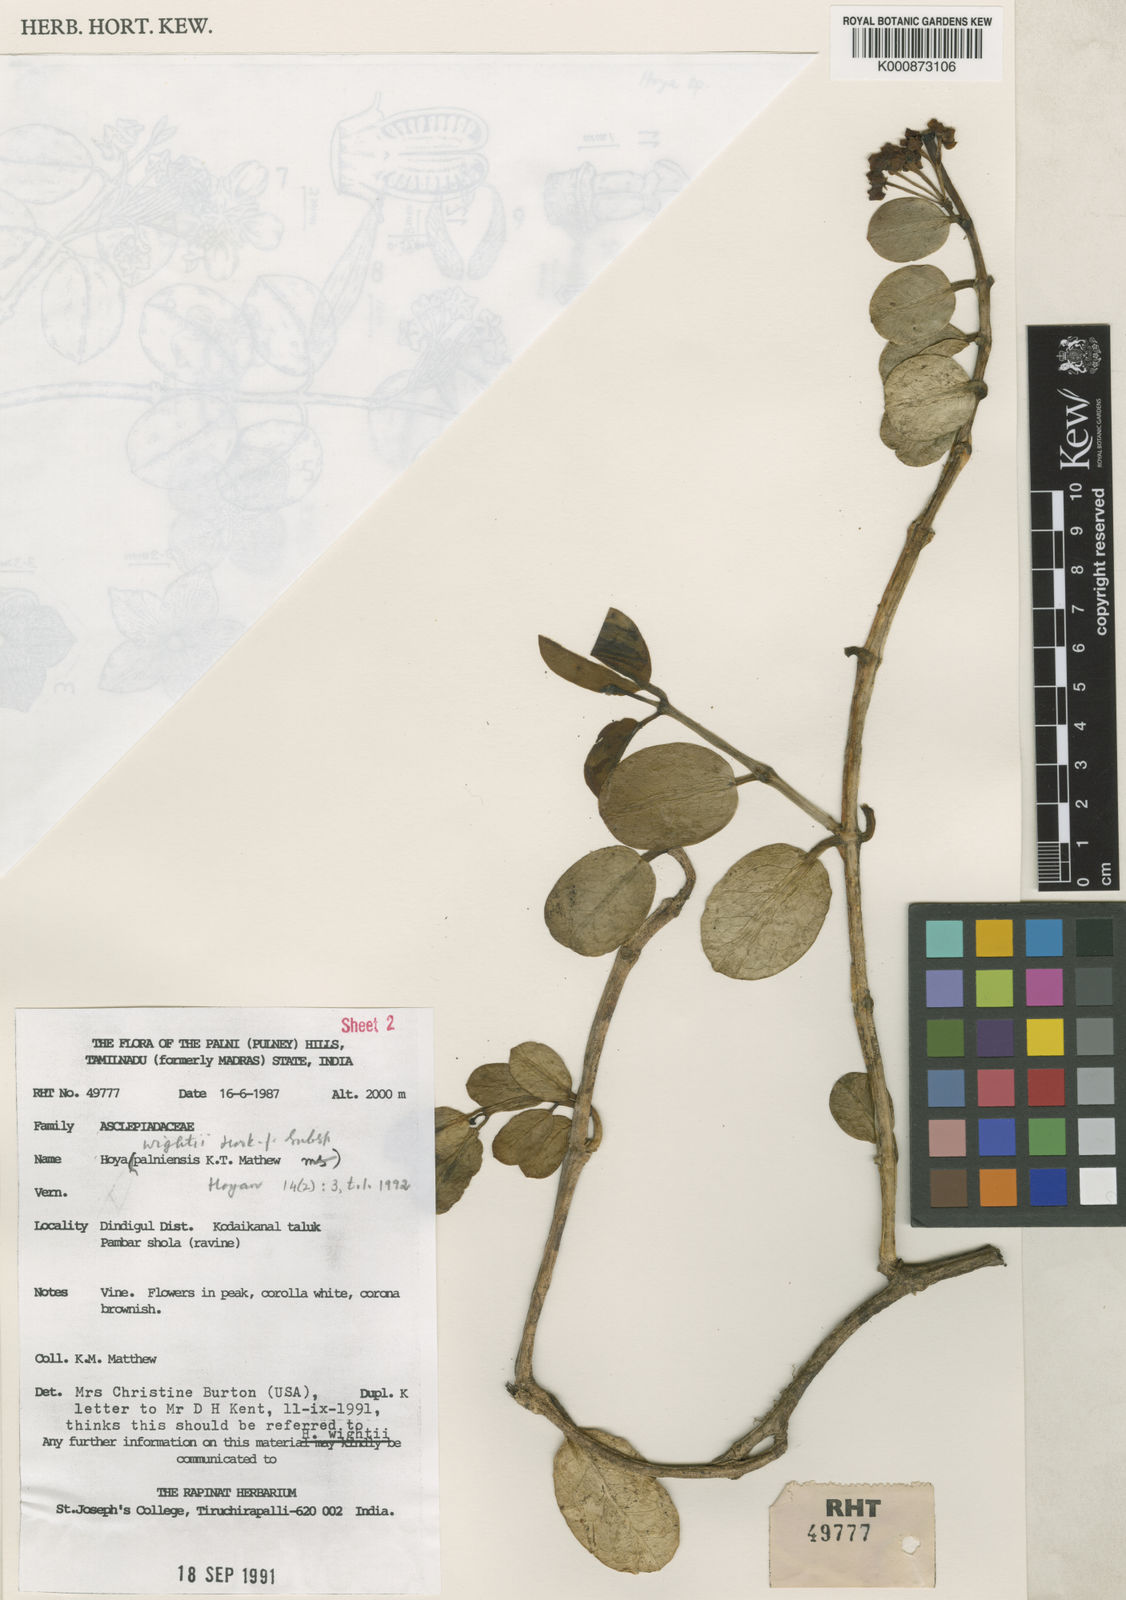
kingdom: Plantae
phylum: Tracheophyta
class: Magnoliopsida
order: Gentianales
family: Apocynaceae
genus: Hoya
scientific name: Hoya wightii
